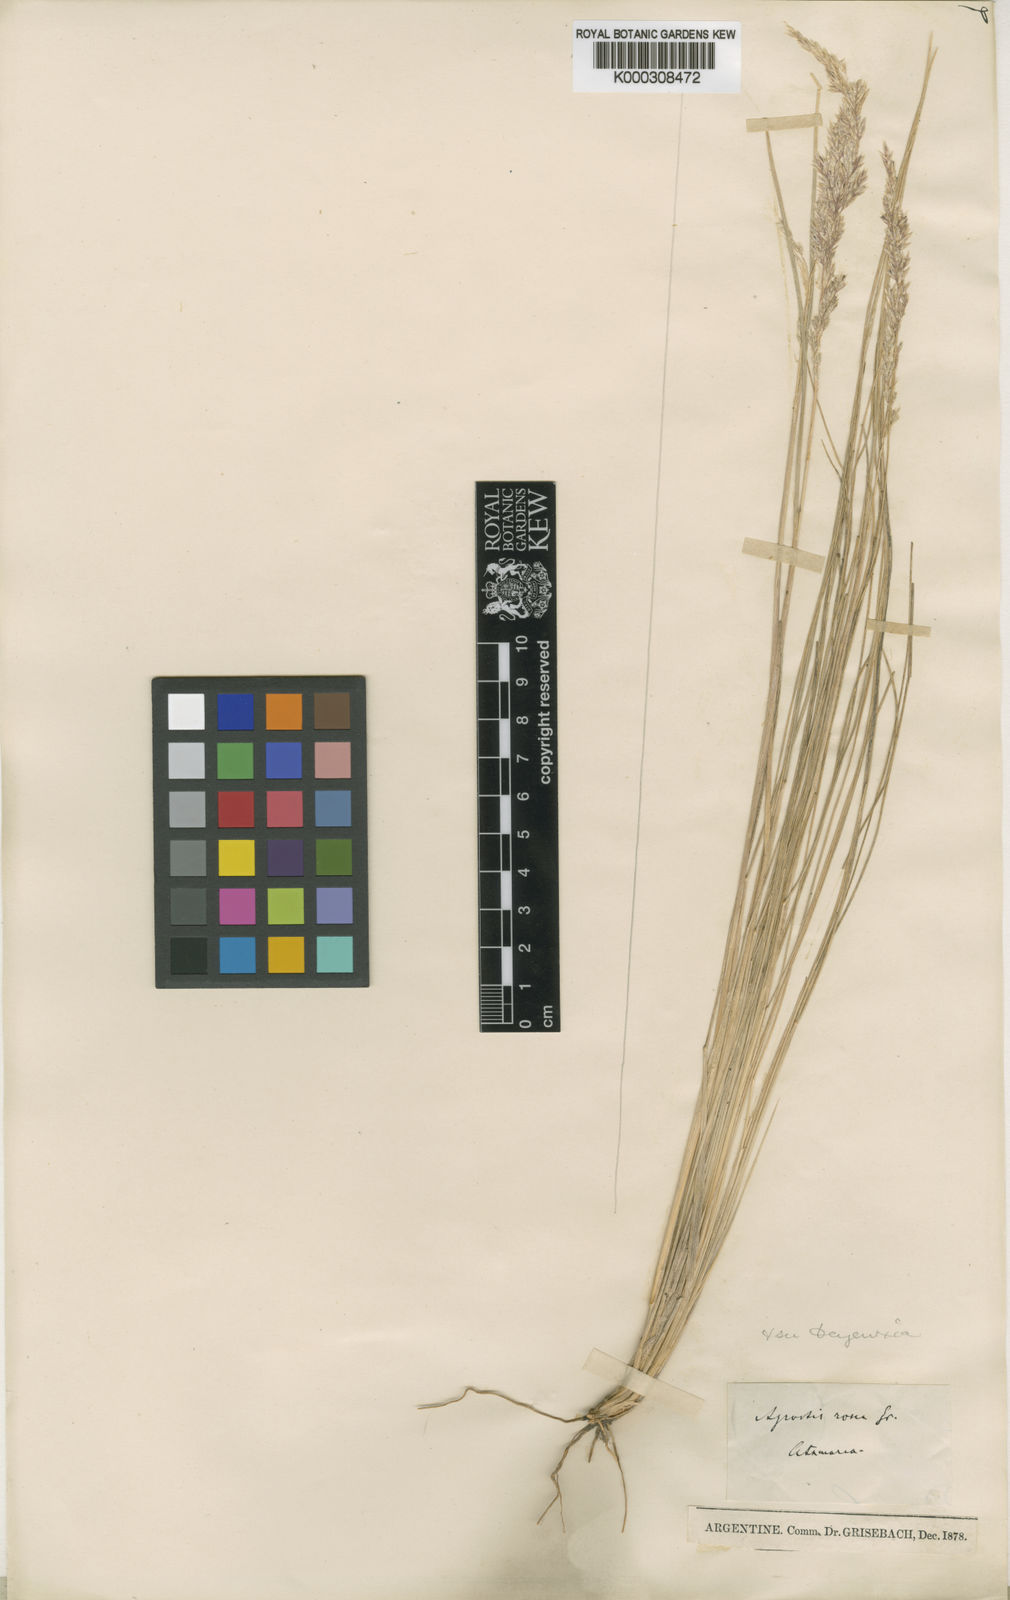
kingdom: Plantae
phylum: Tracheophyta
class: Liliopsida
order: Poales
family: Poaceae
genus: Calamagrostis
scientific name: Calamagrostis
